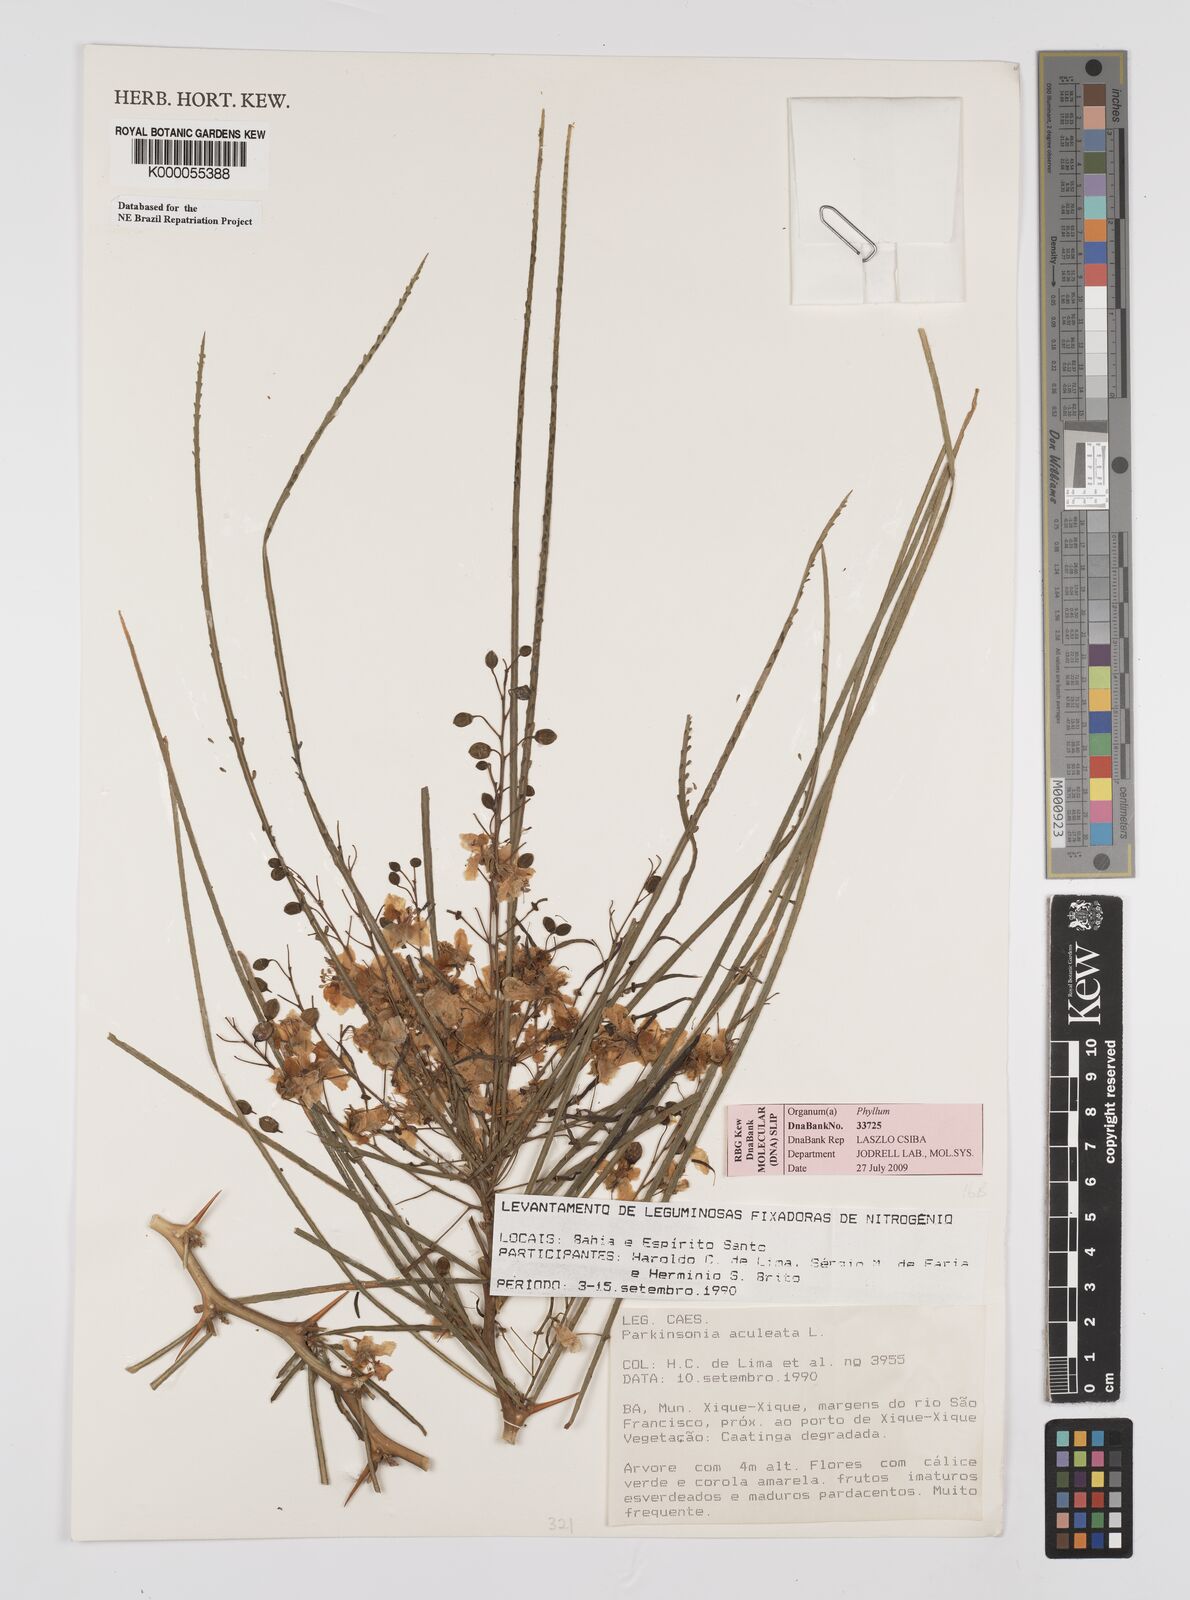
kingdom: Plantae
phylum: Tracheophyta
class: Magnoliopsida
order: Fabales
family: Fabaceae
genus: Parkinsonia
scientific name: Parkinsonia aculeata
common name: Jerusalem thorn
